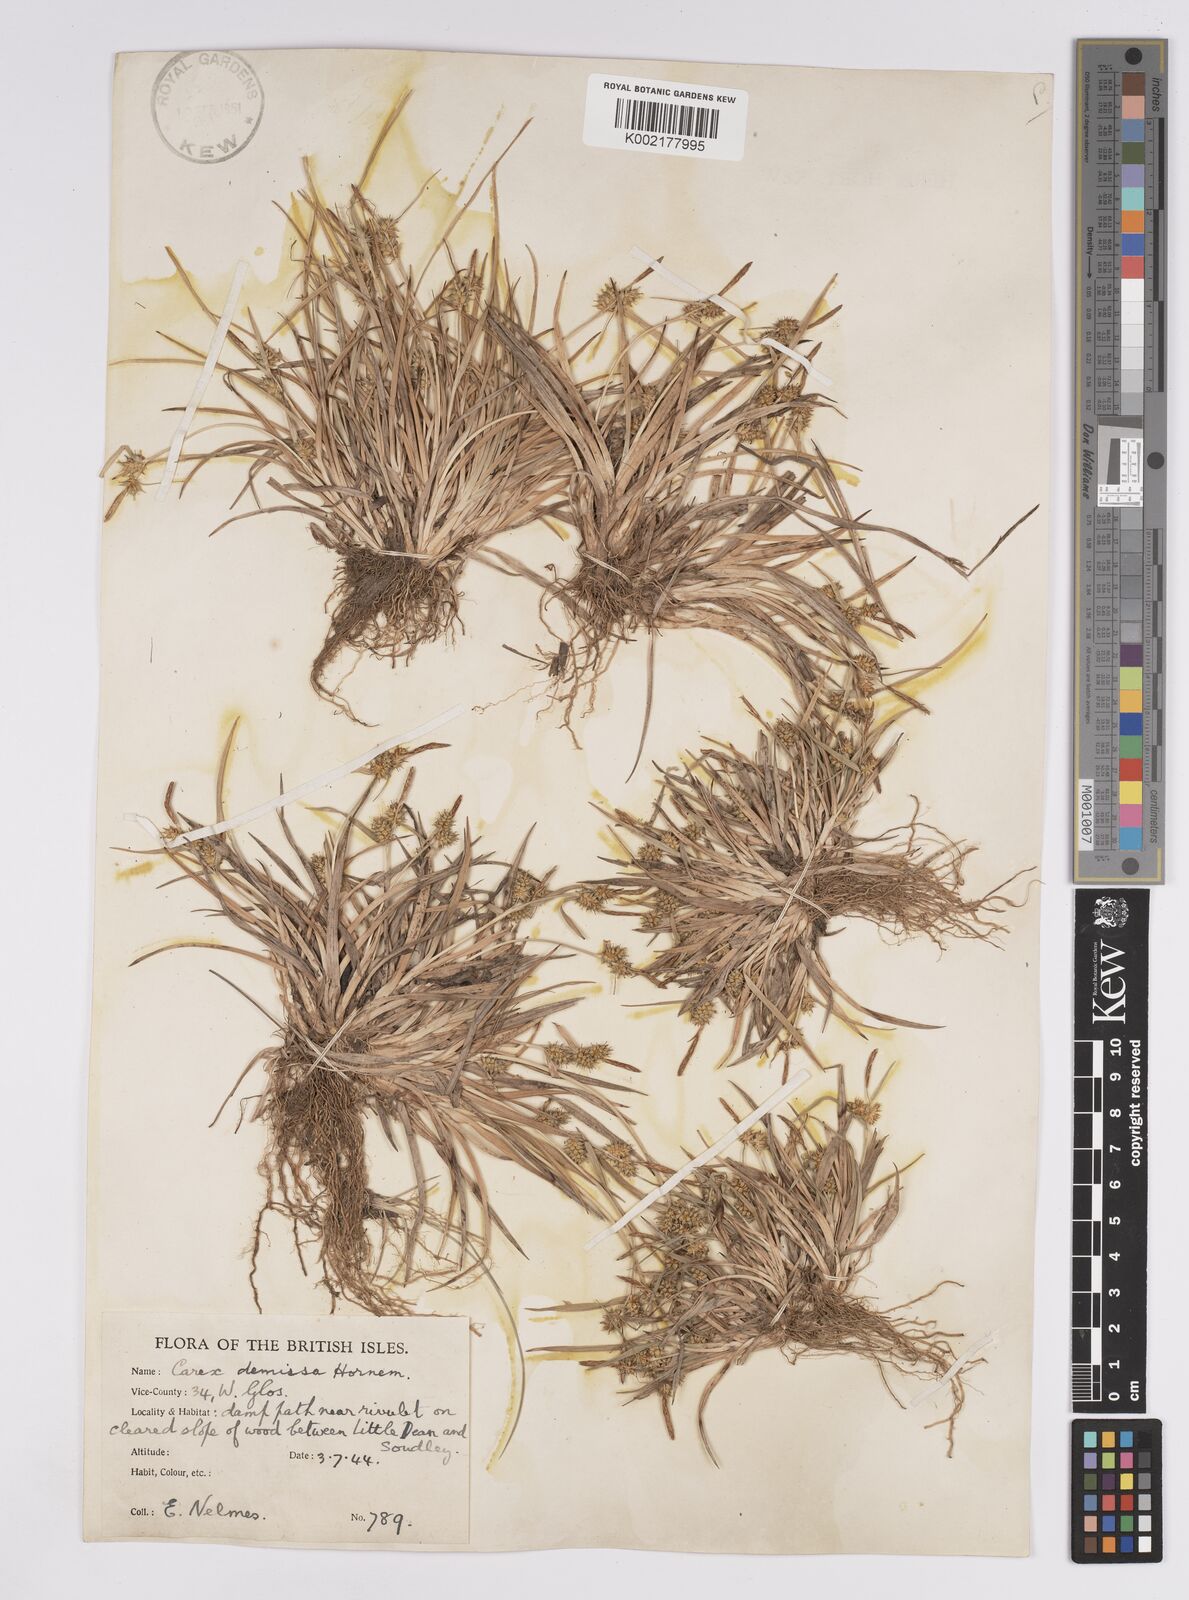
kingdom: Plantae
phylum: Tracheophyta
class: Liliopsida
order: Poales
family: Cyperaceae
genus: Carex
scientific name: Carex demissa
